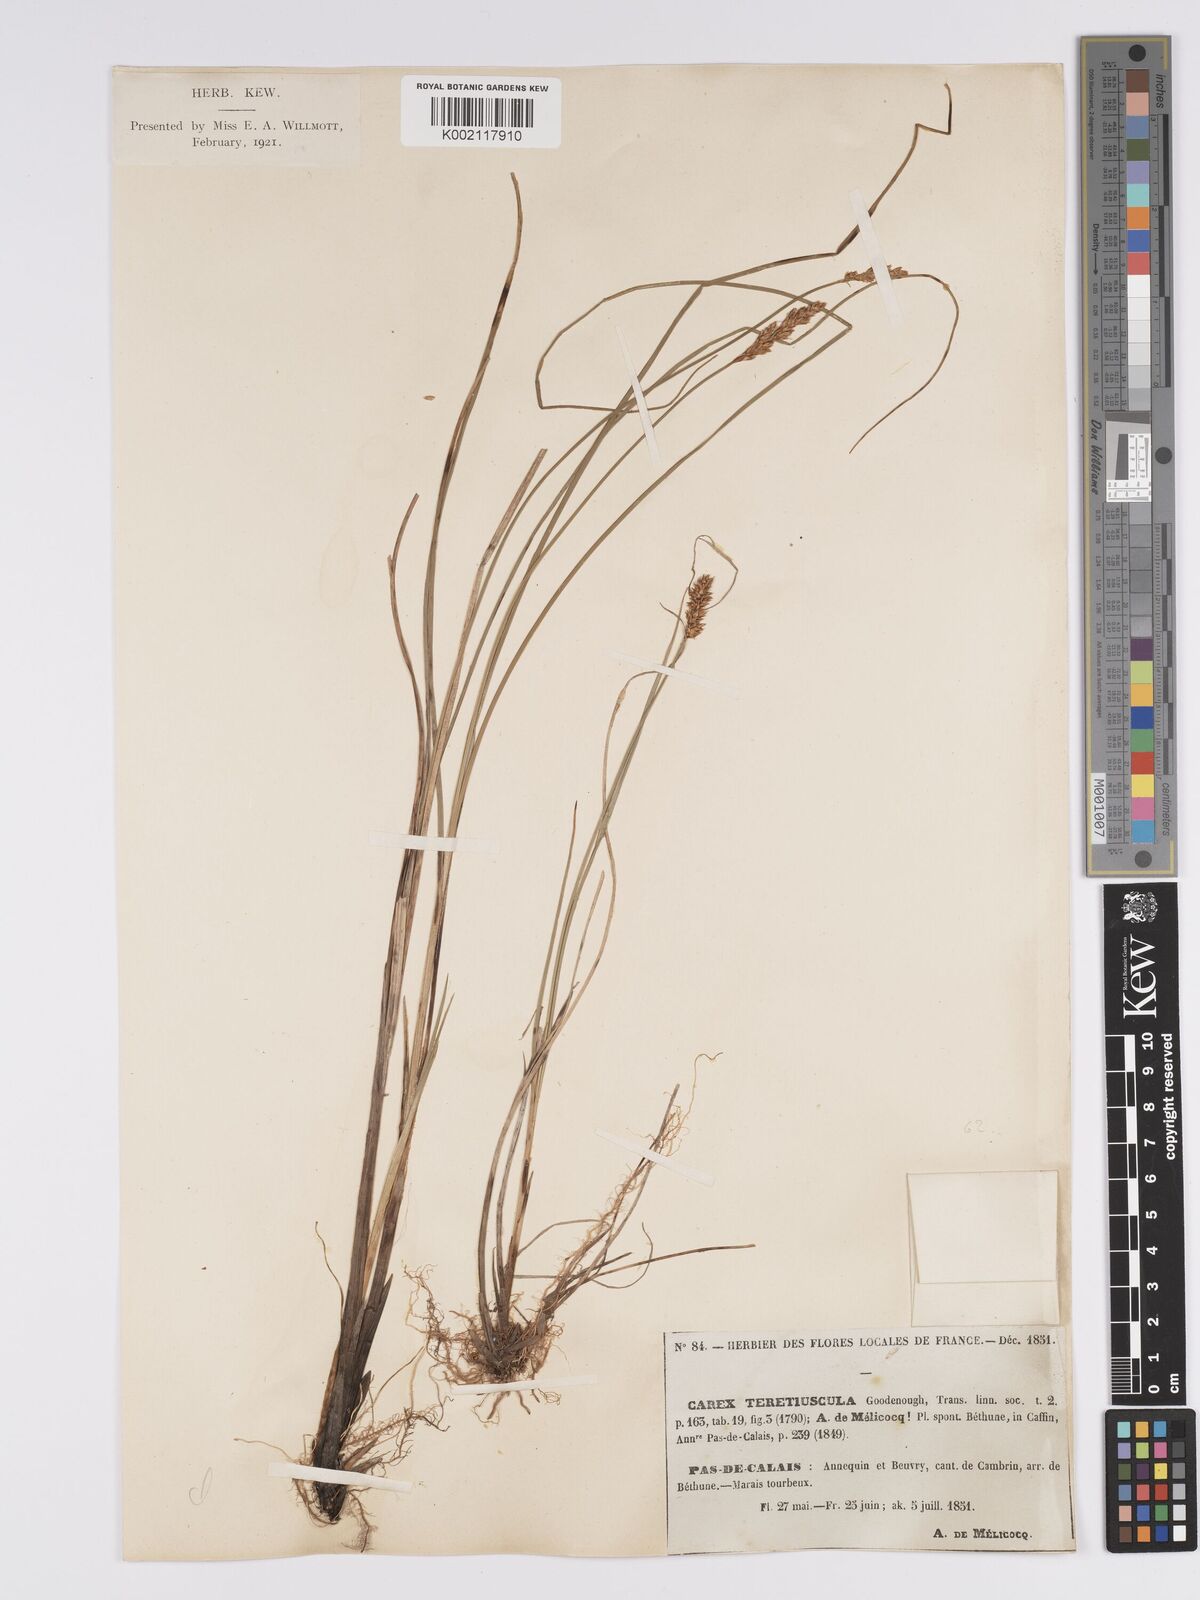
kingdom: Plantae
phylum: Tracheophyta
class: Liliopsida
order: Poales
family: Cyperaceae
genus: Carex
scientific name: Carex diandra
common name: Lesser tussock-sedge
